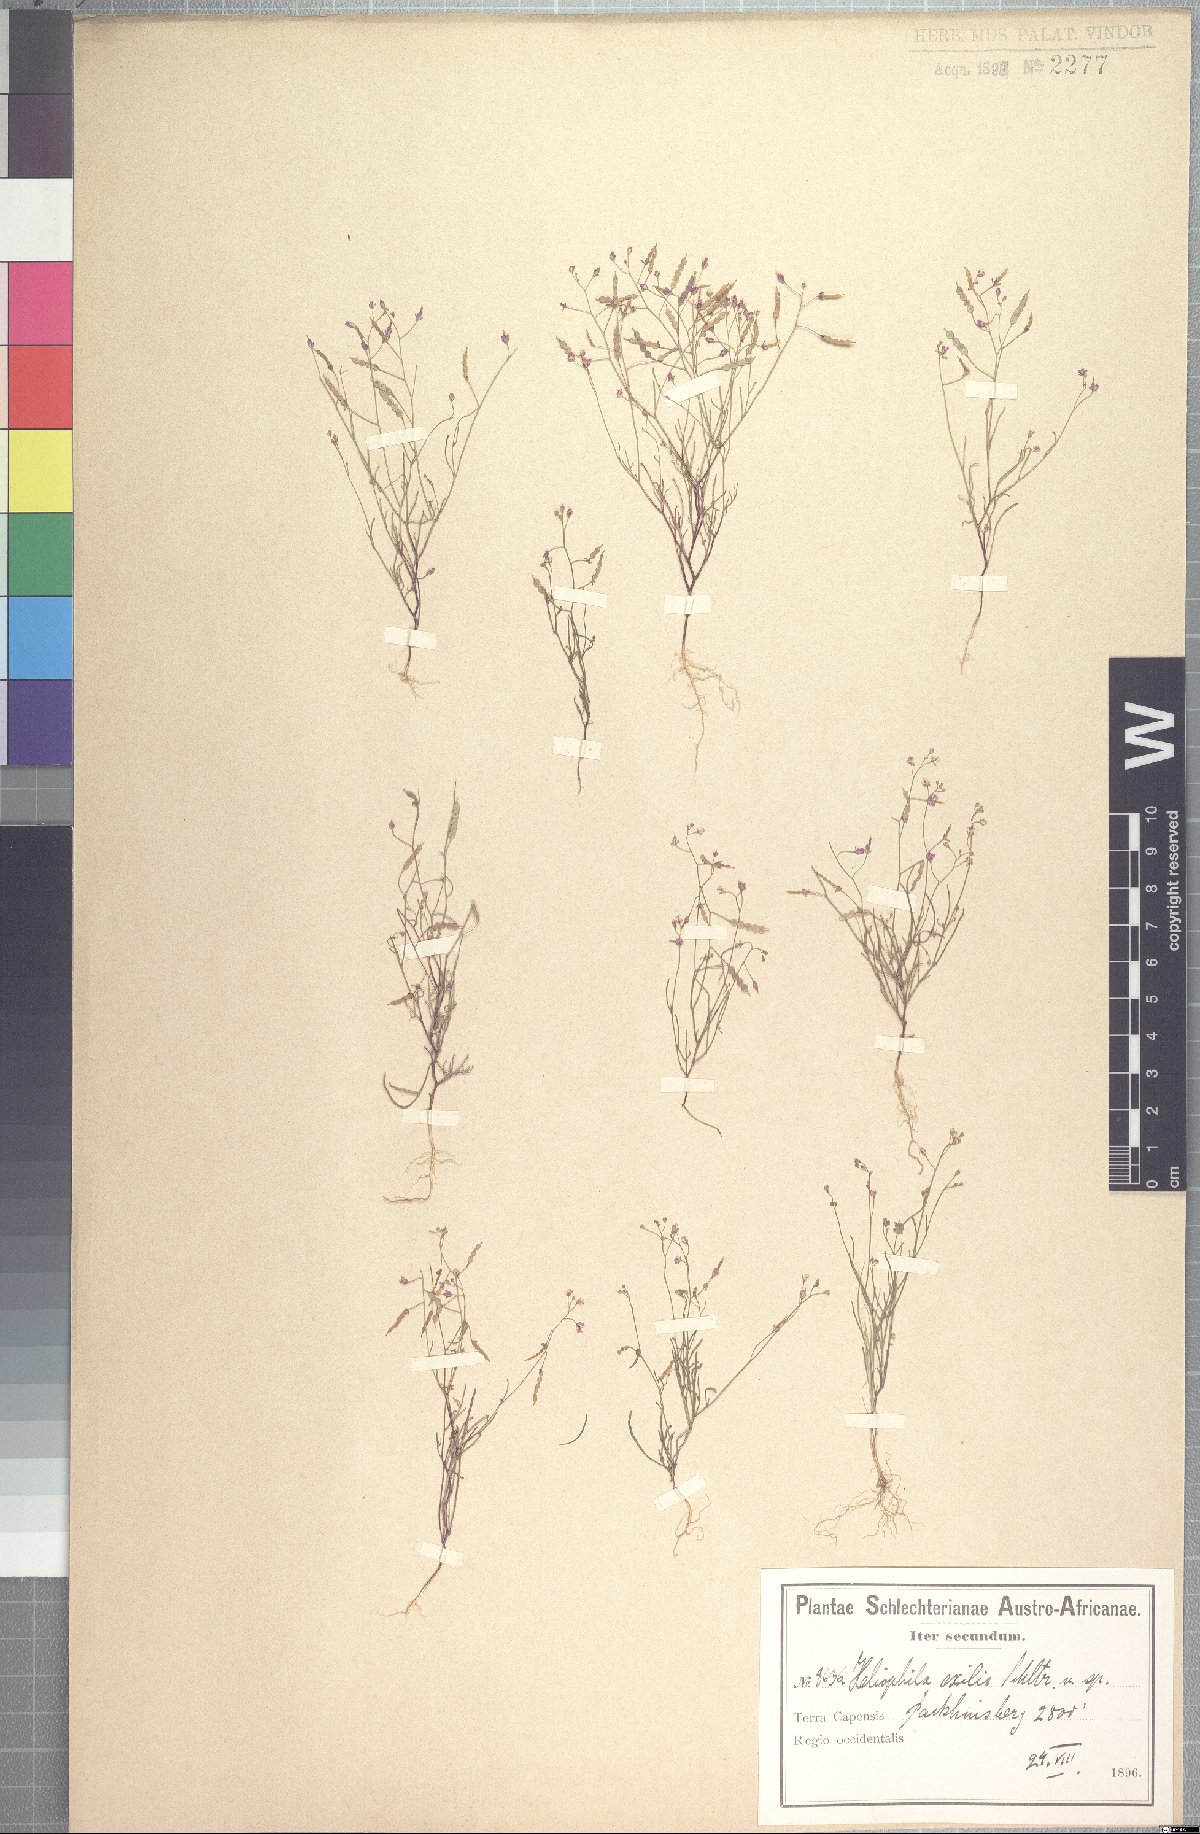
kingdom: Plantae
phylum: Tracheophyta
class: Magnoliopsida
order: Brassicales
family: Brassicaceae
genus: Heliophila
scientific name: Heliophila pinnata
